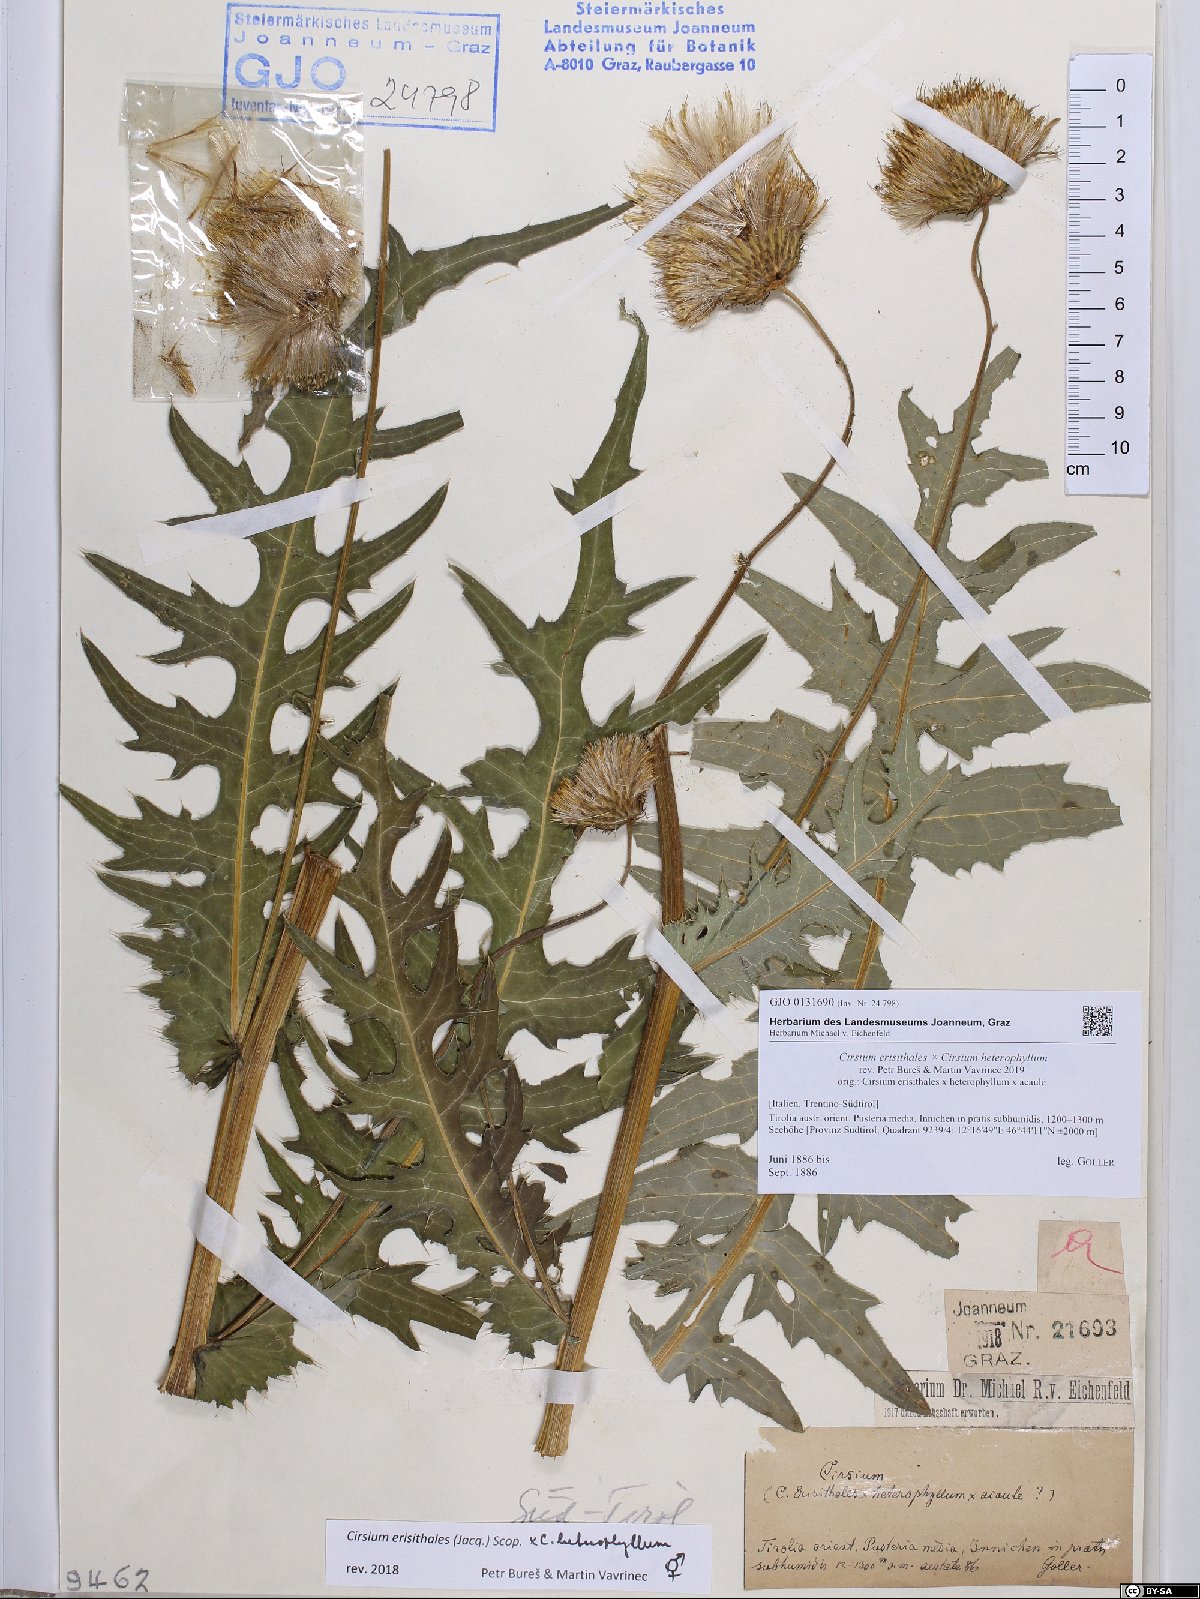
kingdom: Plantae
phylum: Tracheophyta
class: Magnoliopsida
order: Asterales
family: Asteraceae
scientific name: Asteraceae
